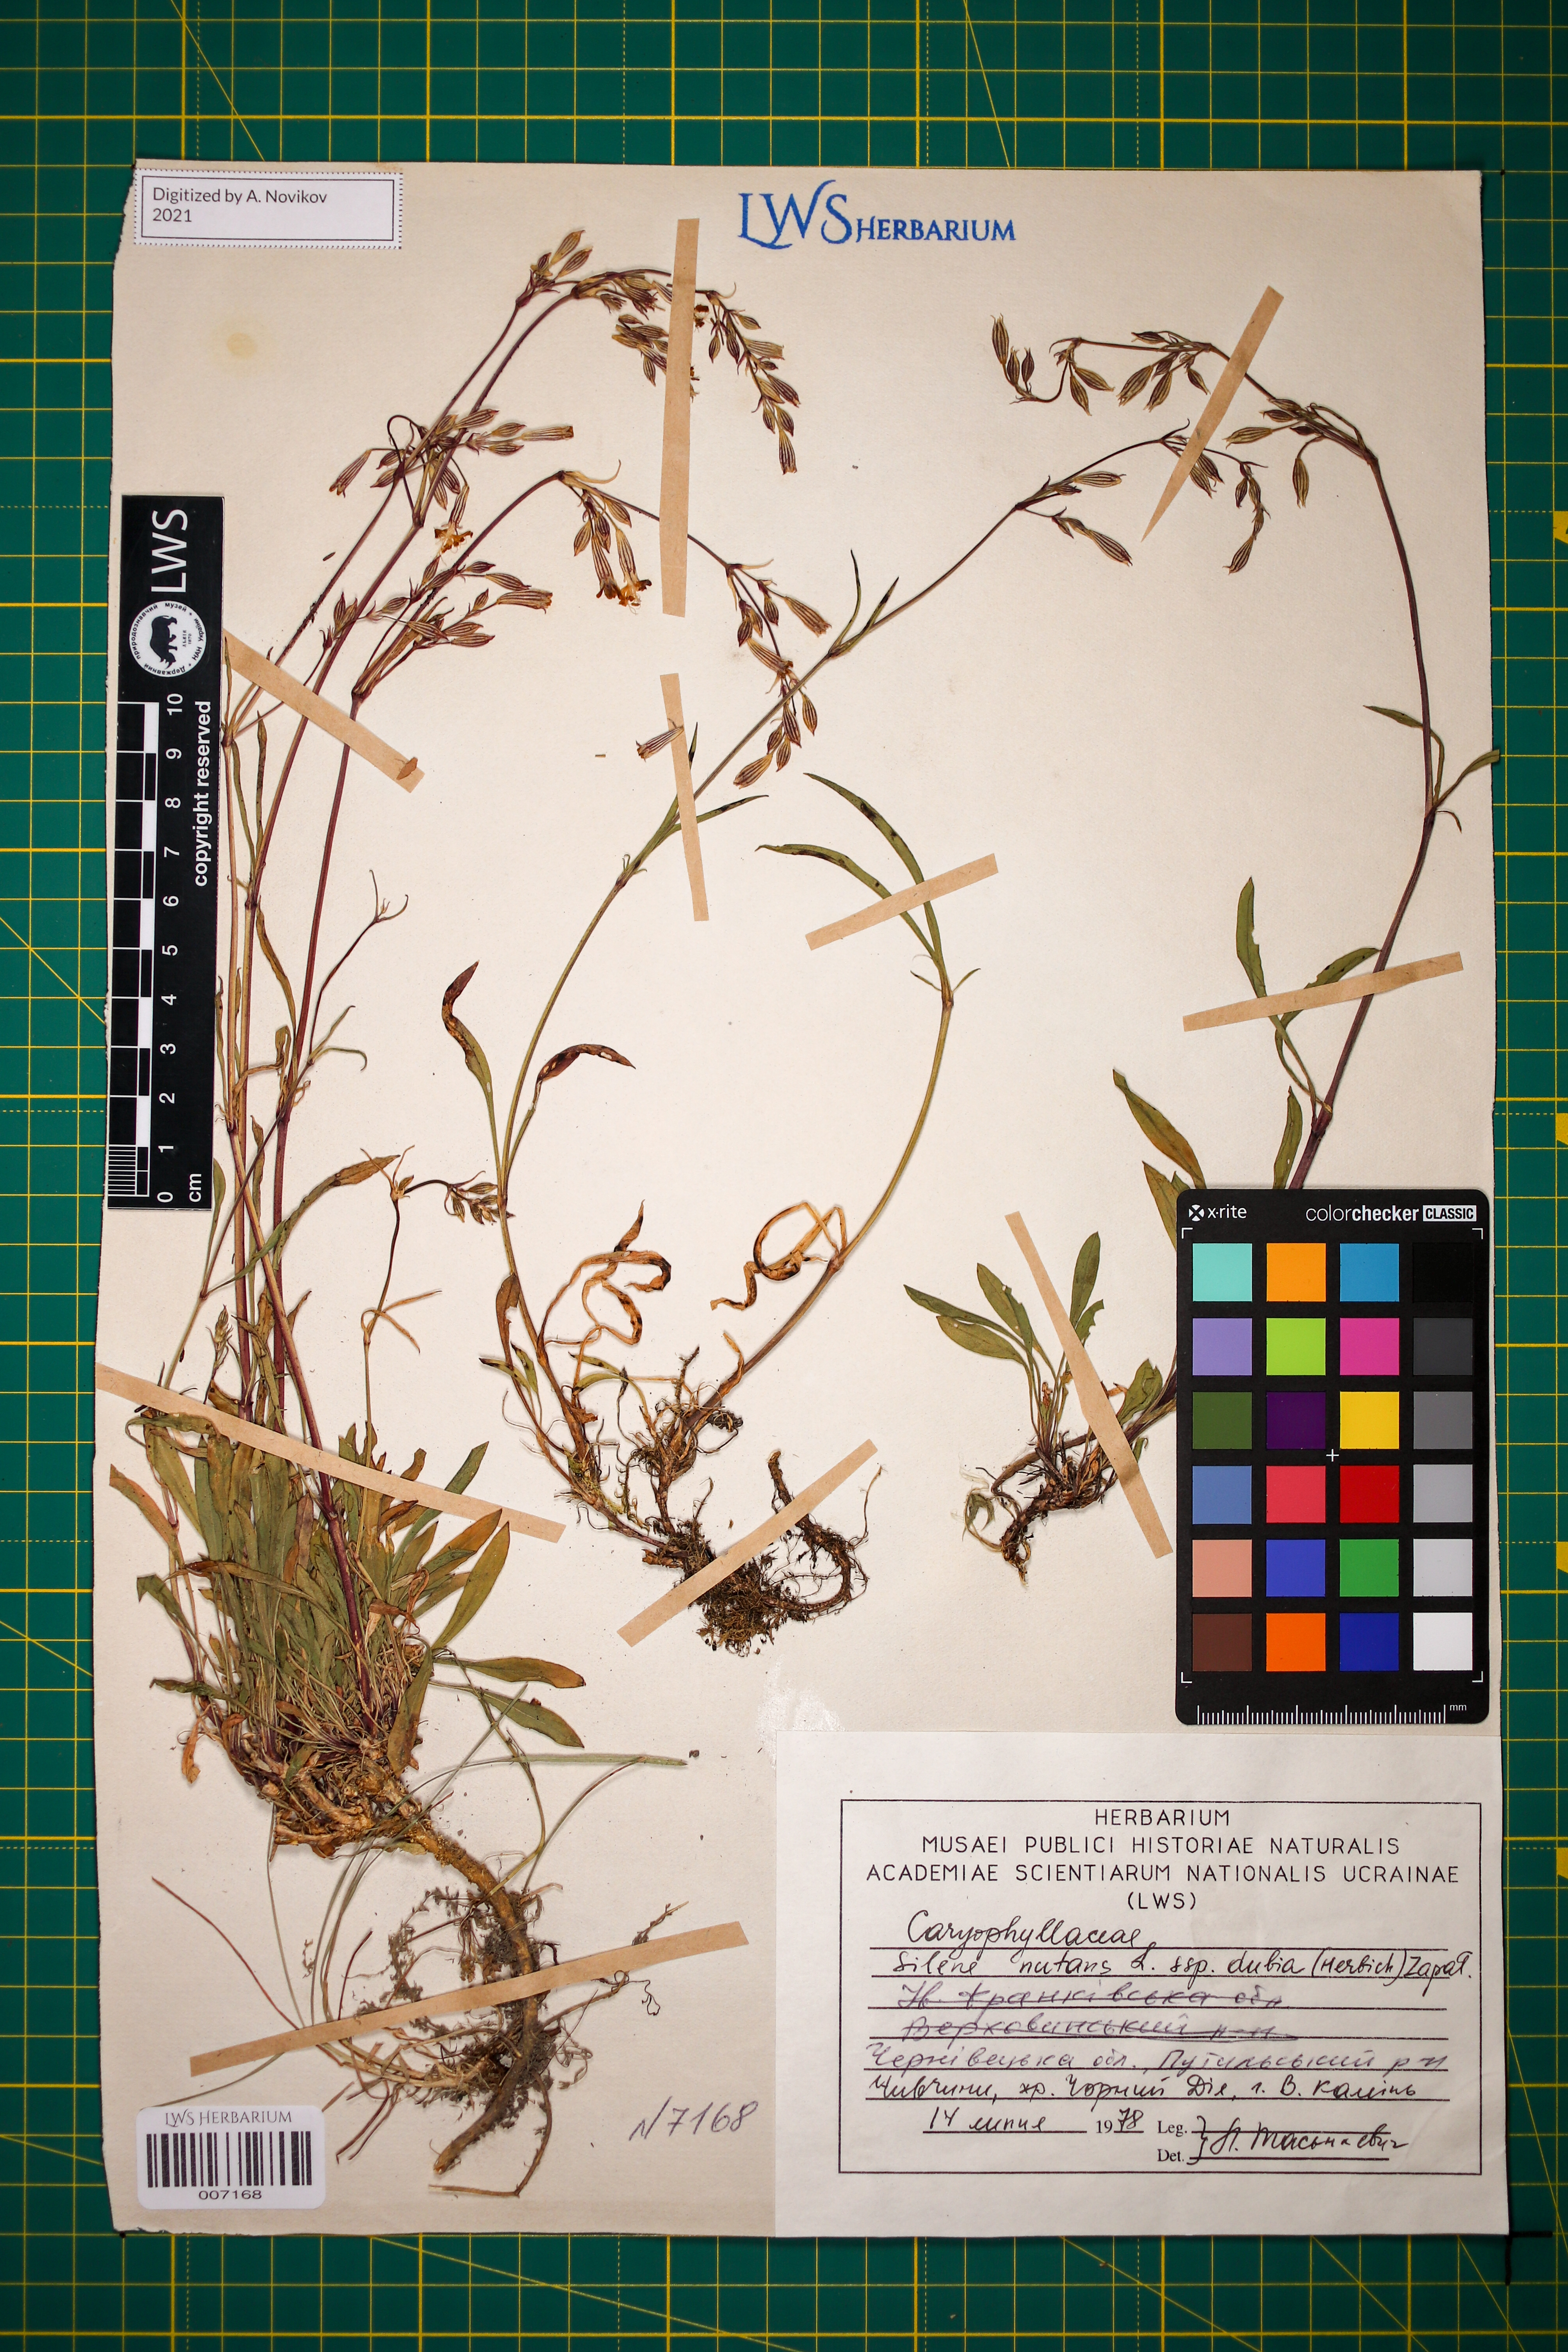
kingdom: Plantae
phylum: Tracheophyta
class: Magnoliopsida
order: Caryophyllales
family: Caryophyllaceae
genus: Silene
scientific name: Silene nutans
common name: Nottingham catchfly
